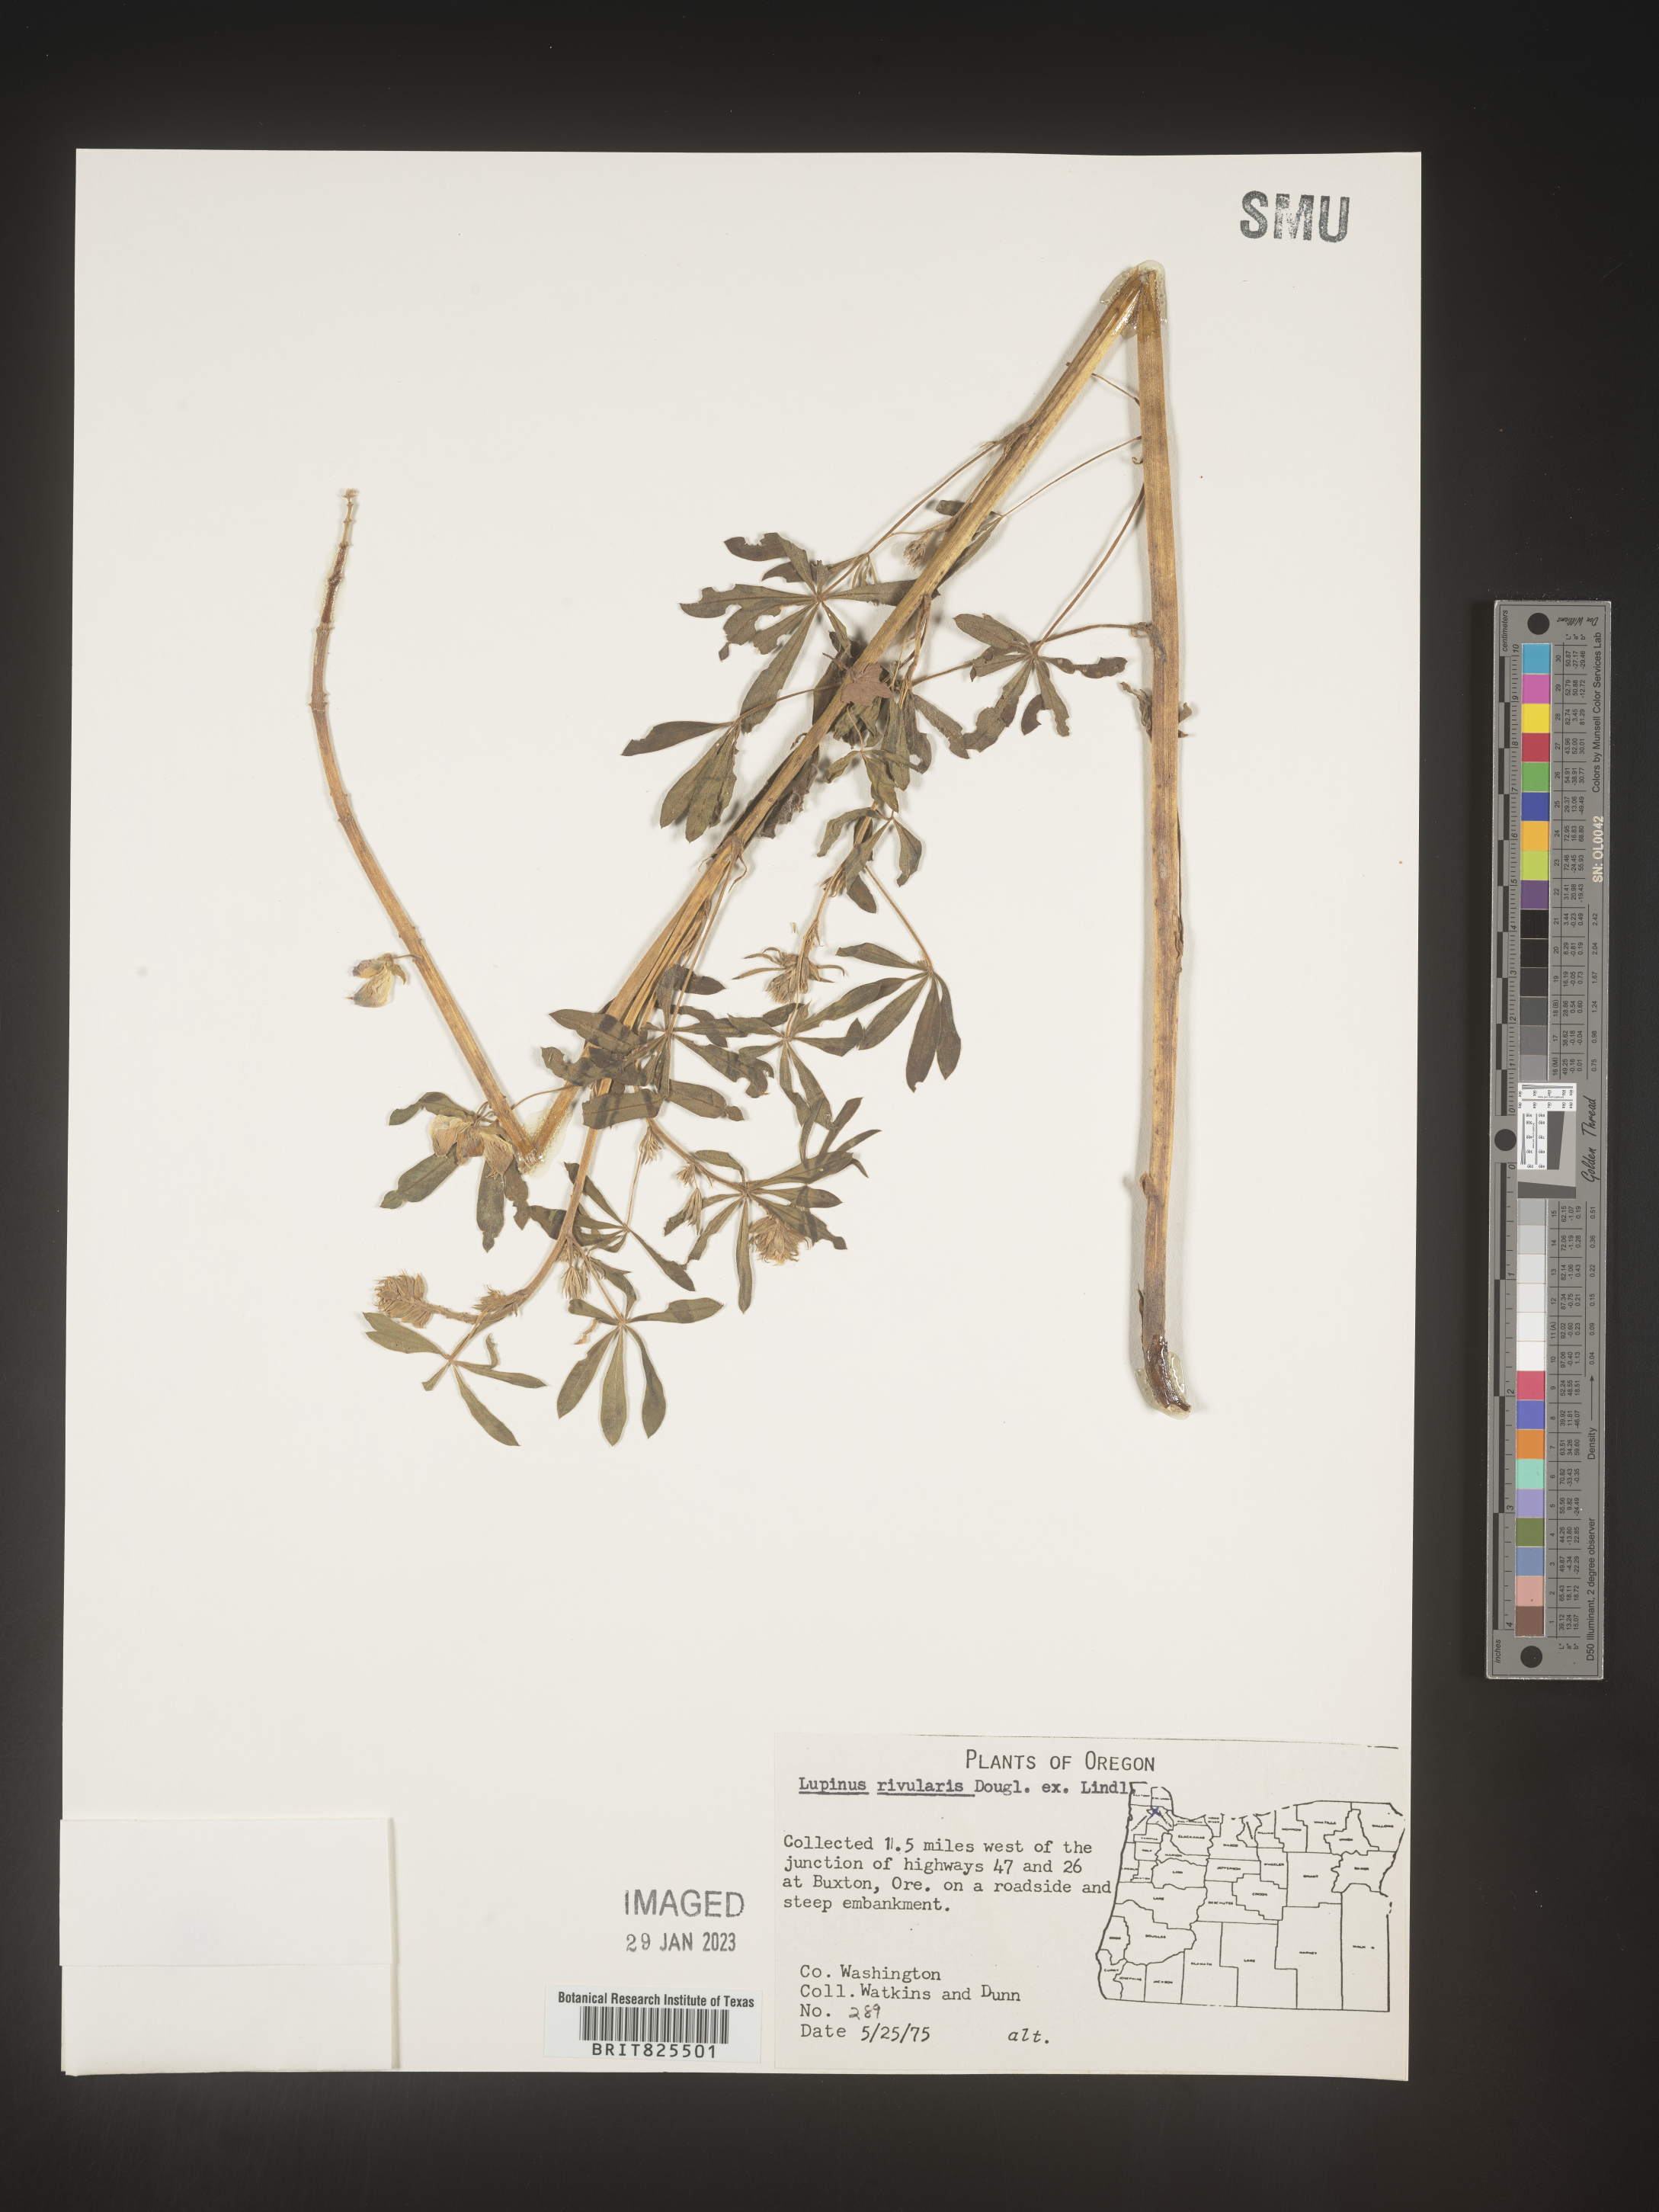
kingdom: Plantae
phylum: Tracheophyta
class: Magnoliopsida
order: Fabales
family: Fabaceae
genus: Lupinus
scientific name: Lupinus
